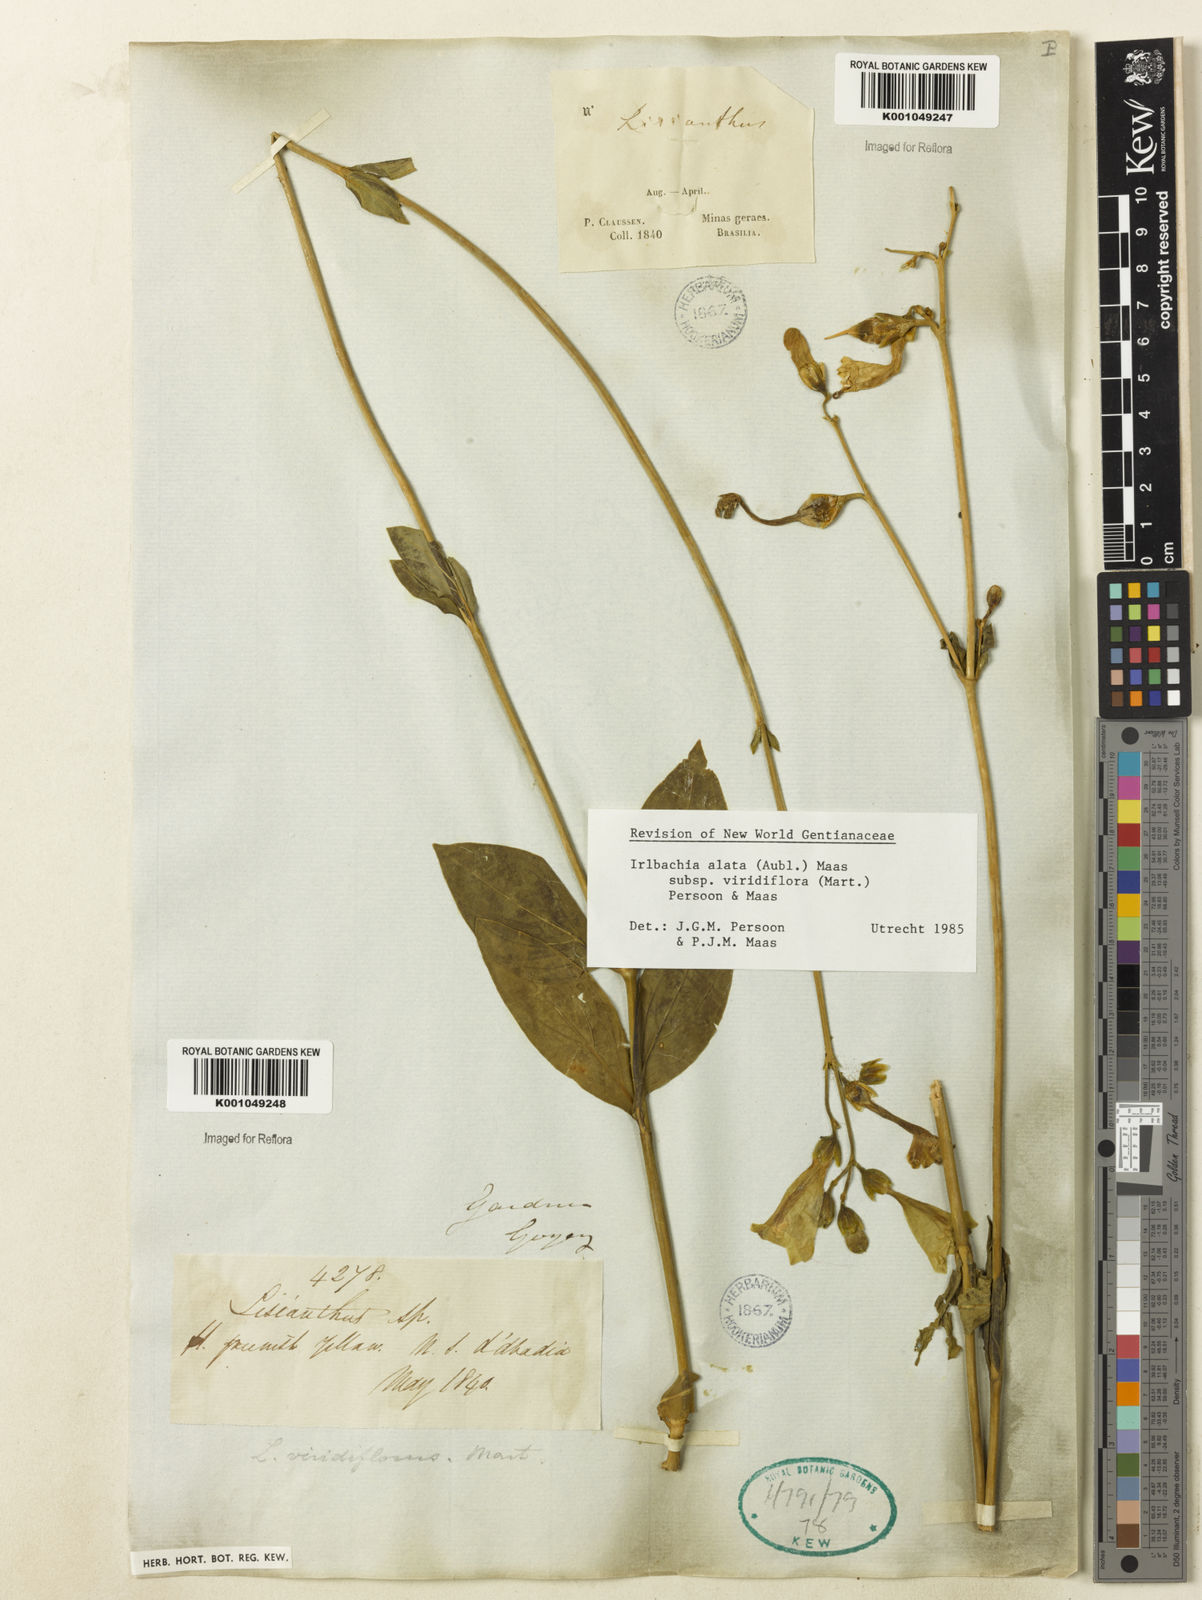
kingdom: Plantae
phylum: Tracheophyta
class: Magnoliopsida
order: Gentianales
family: Gentianaceae
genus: Chelonanthus
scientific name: Chelonanthus viridiflorus
